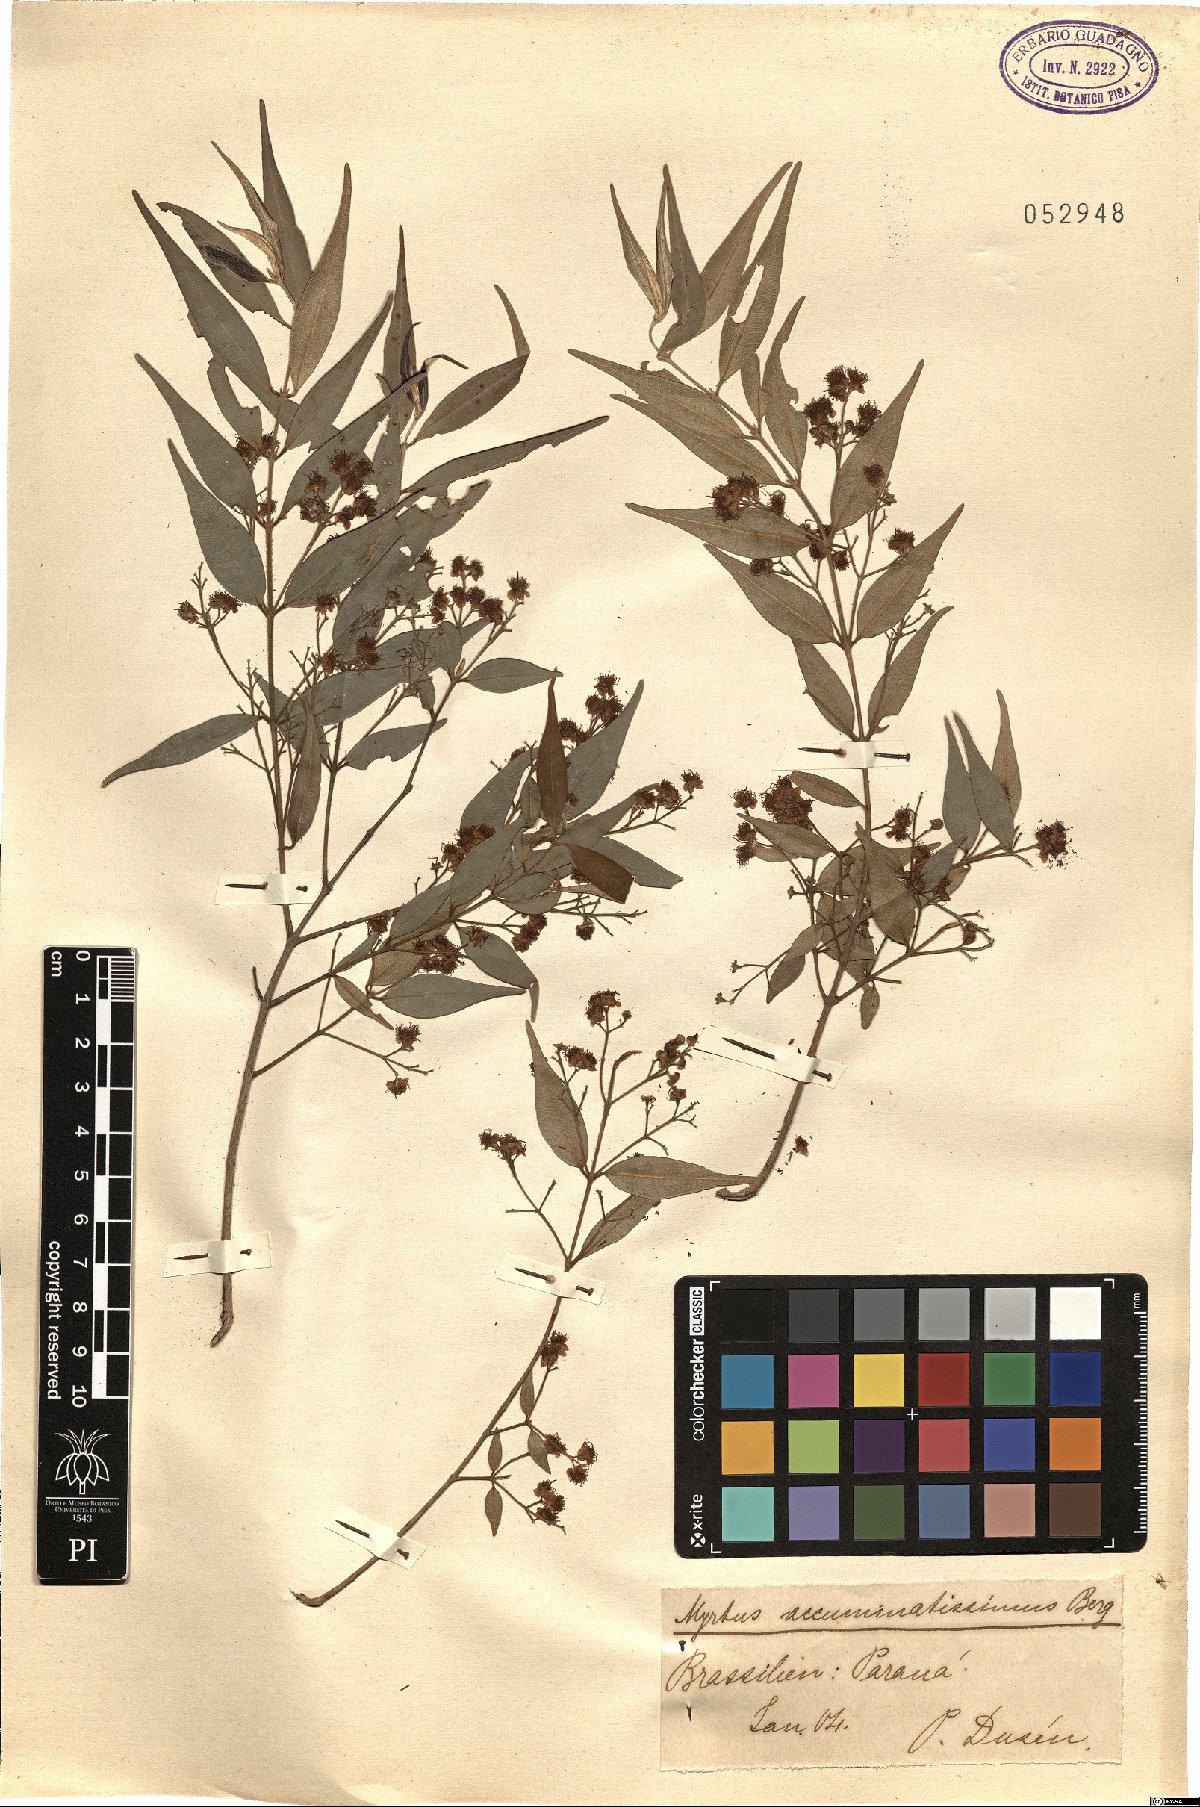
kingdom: Plantae
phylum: Tracheophyta
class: Magnoliopsida
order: Myrtales
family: Myrtaceae
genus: Syzygium
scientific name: Syzygium acuminatissimum
